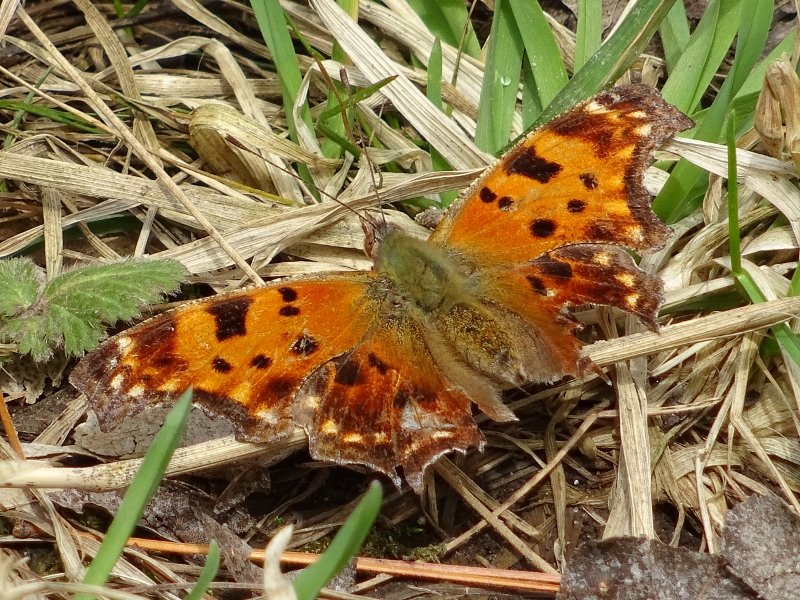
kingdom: Animalia
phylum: Arthropoda
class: Insecta
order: Lepidoptera
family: Nymphalidae
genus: Polygonia
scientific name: Polygonia comma
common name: Eastern Comma
